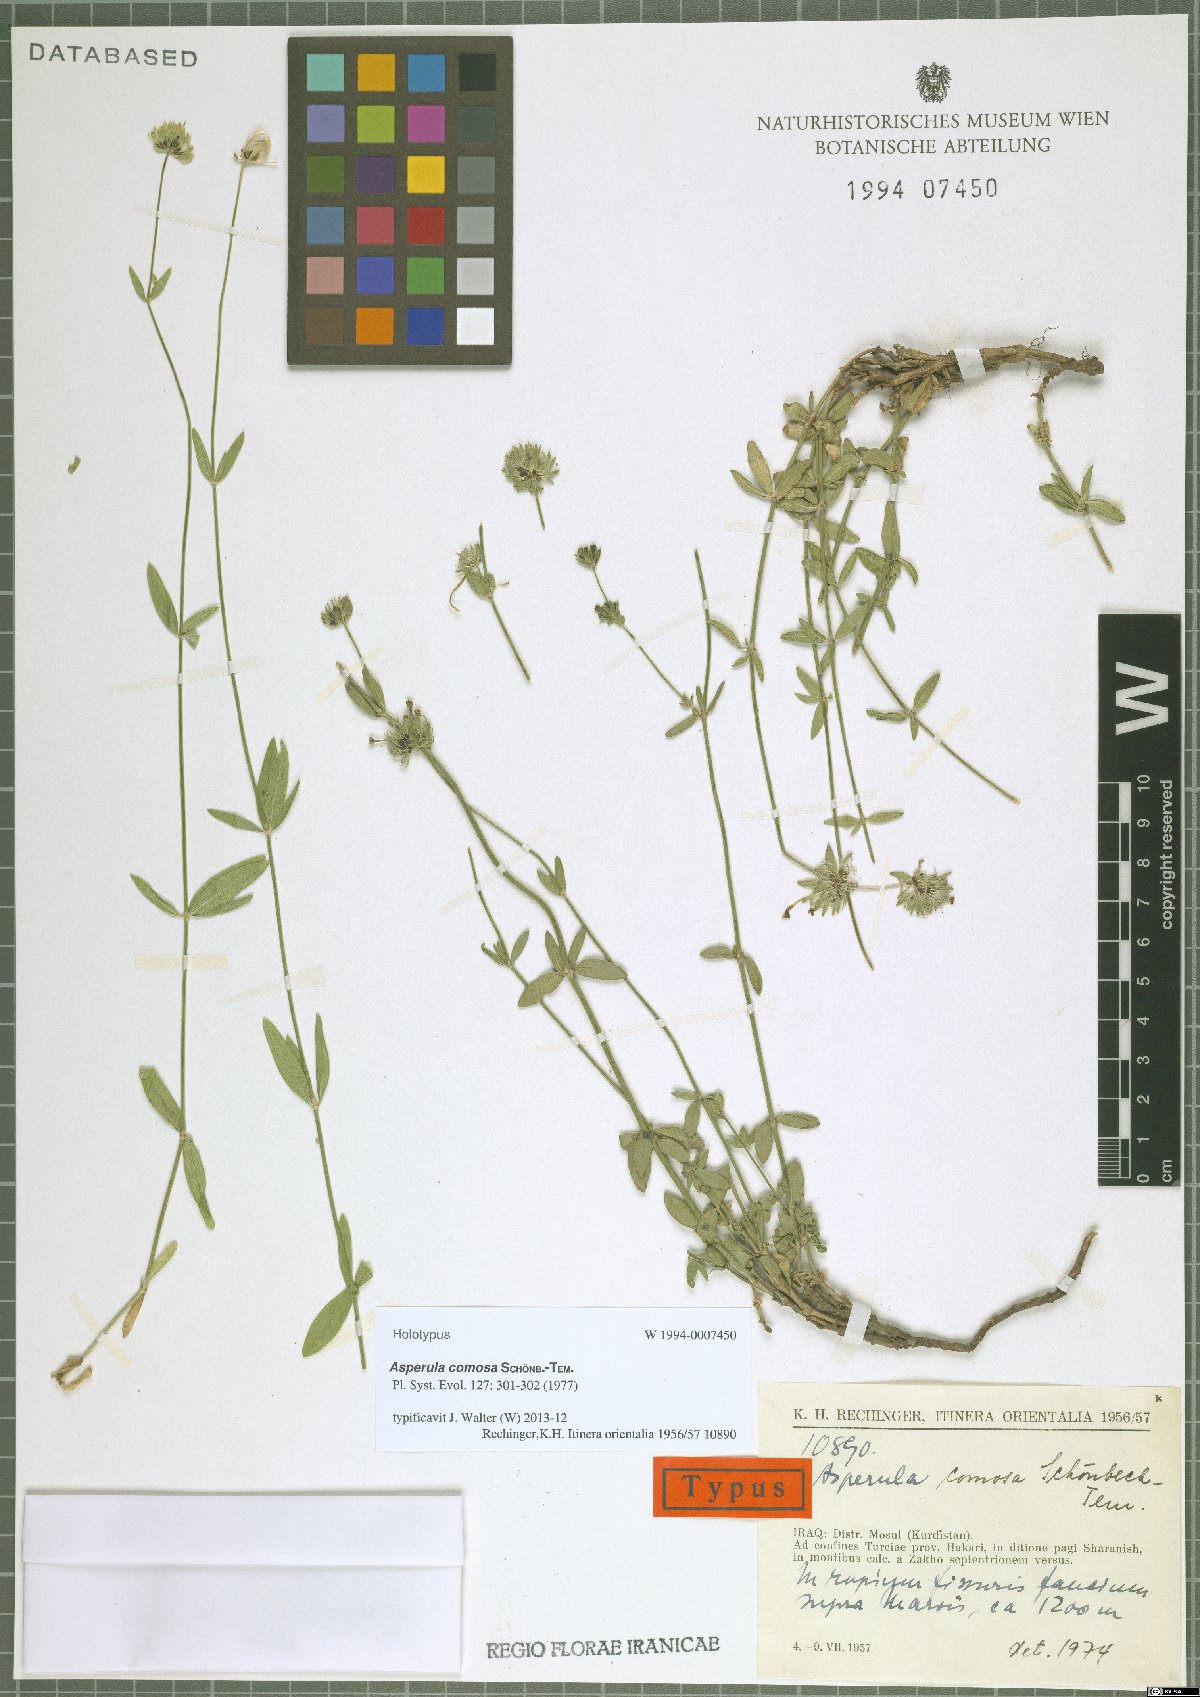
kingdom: Plantae
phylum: Tracheophyta
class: Magnoliopsida
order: Gentianales
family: Rubiaceae
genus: Asperula
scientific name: Asperula comosa
